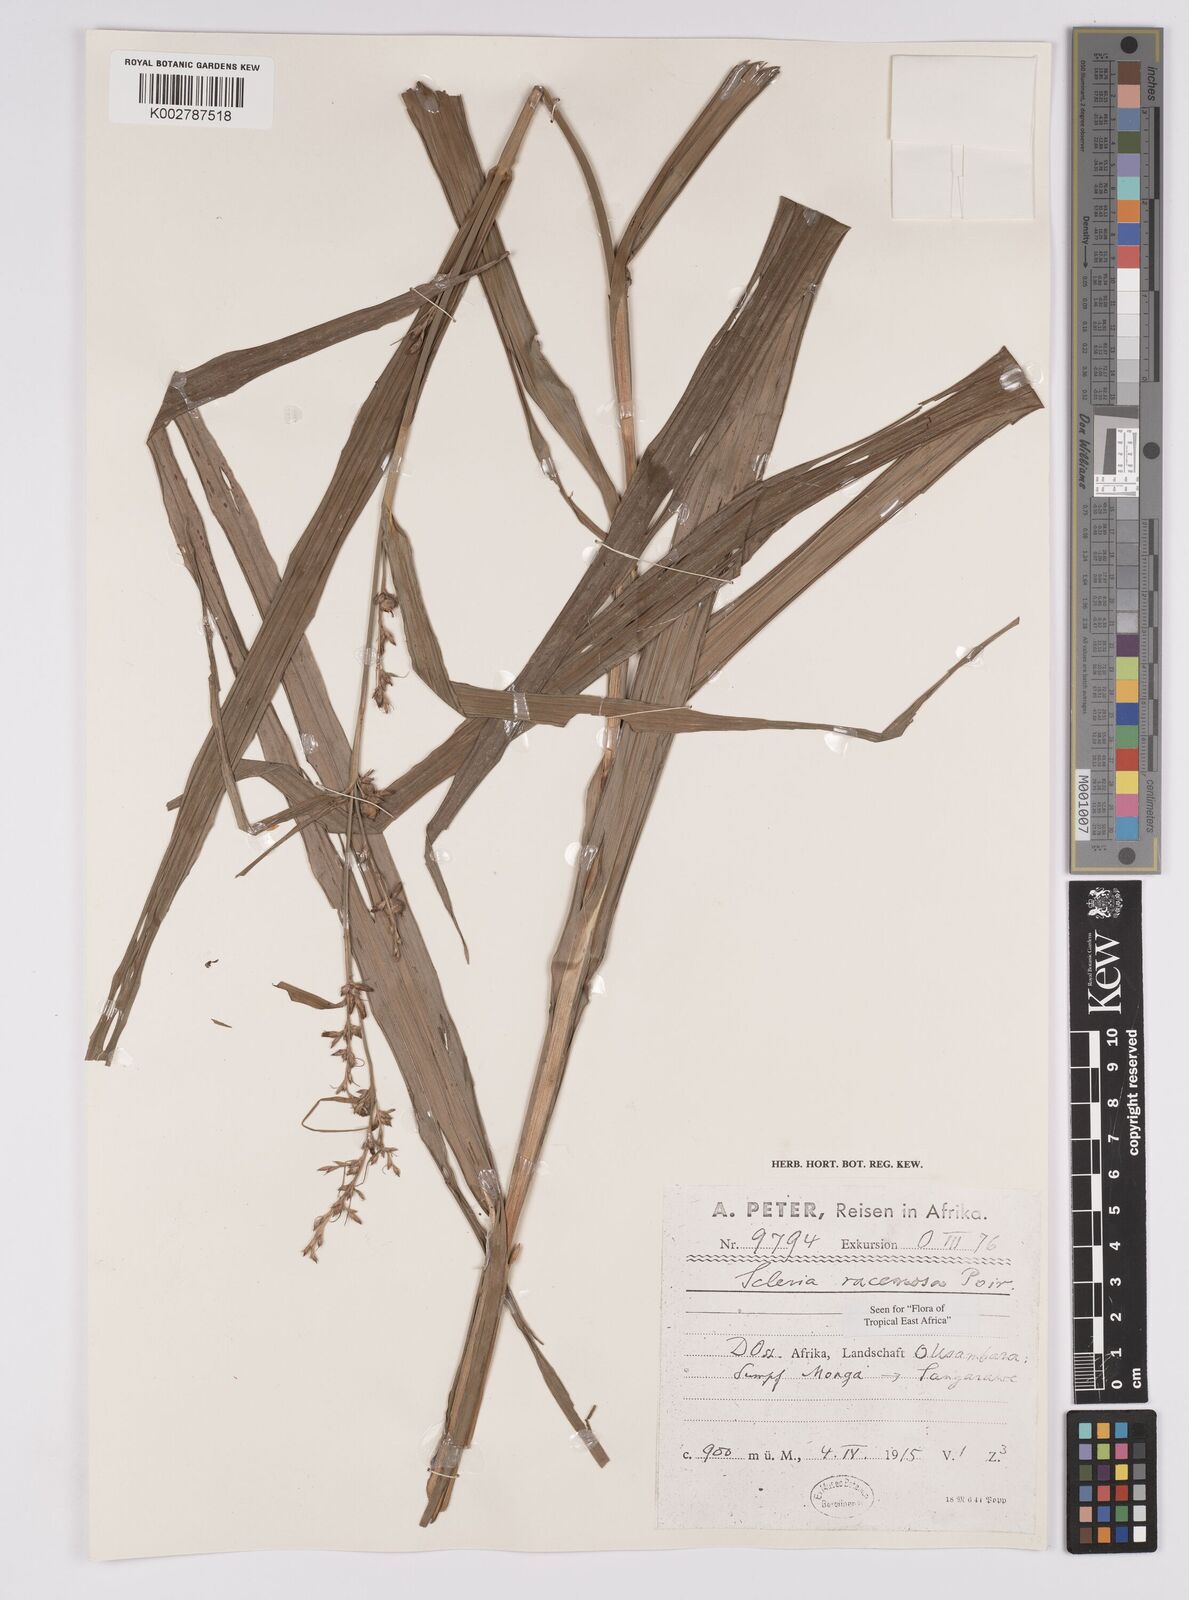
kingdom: Plantae
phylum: Tracheophyta
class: Liliopsida
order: Poales
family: Cyperaceae
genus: Scleria
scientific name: Scleria racemosa
